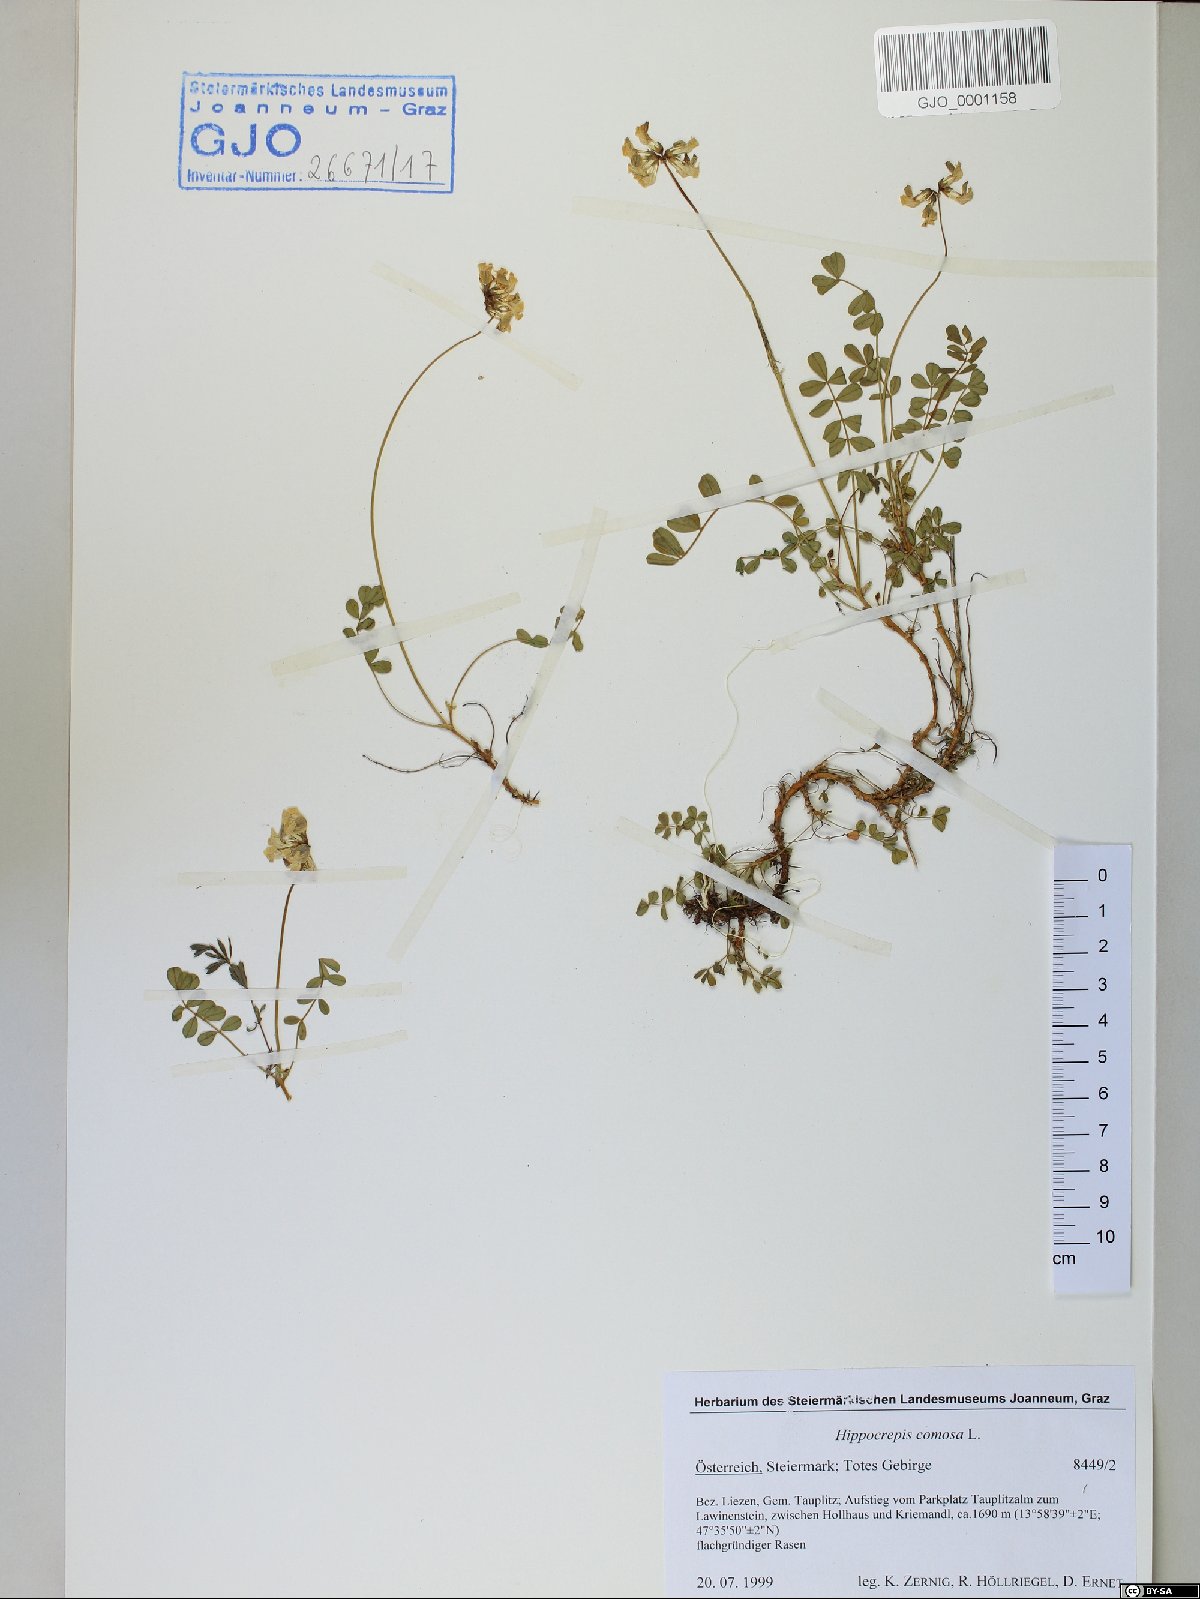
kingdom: Plantae
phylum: Tracheophyta
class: Magnoliopsida
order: Fabales
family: Fabaceae
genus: Hippocrepis
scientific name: Hippocrepis comosa
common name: Horseshoe vetch
